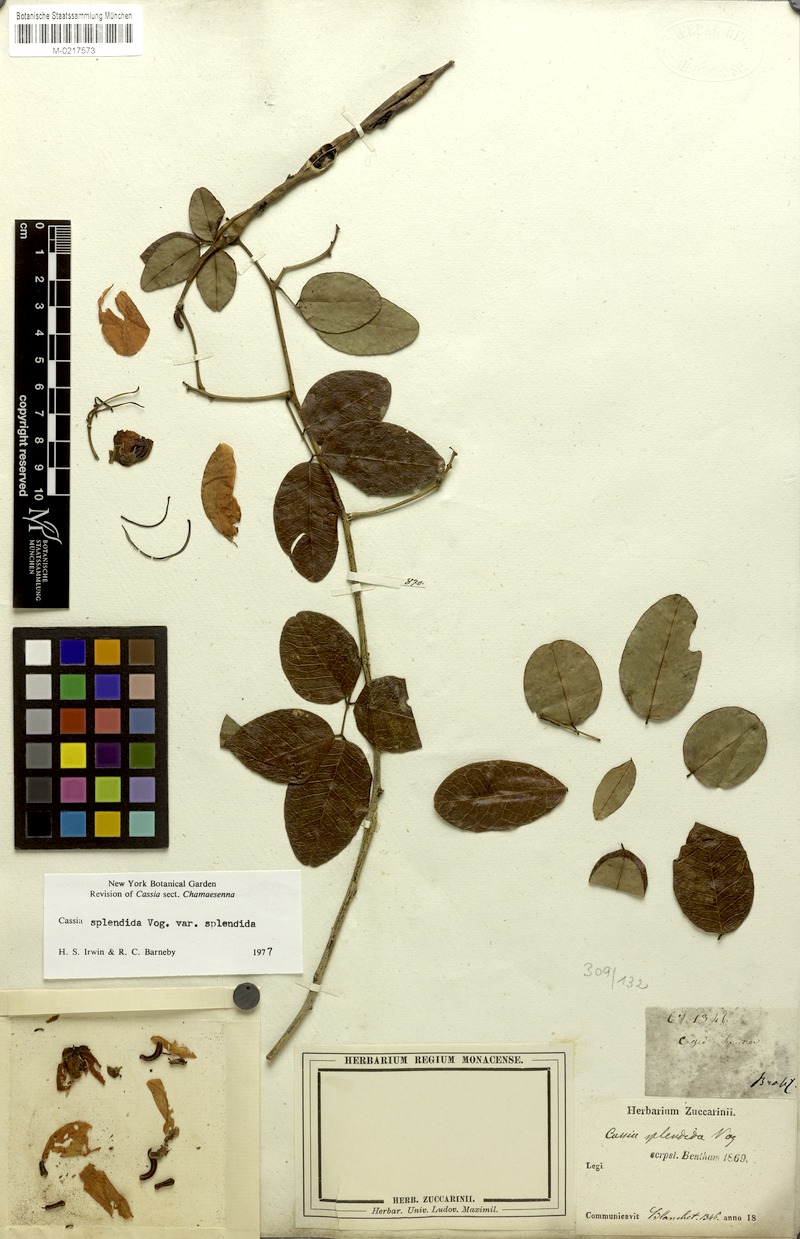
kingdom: Plantae
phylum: Tracheophyta
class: Magnoliopsida
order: Fabales
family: Fabaceae
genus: Senna
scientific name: Senna splendida
